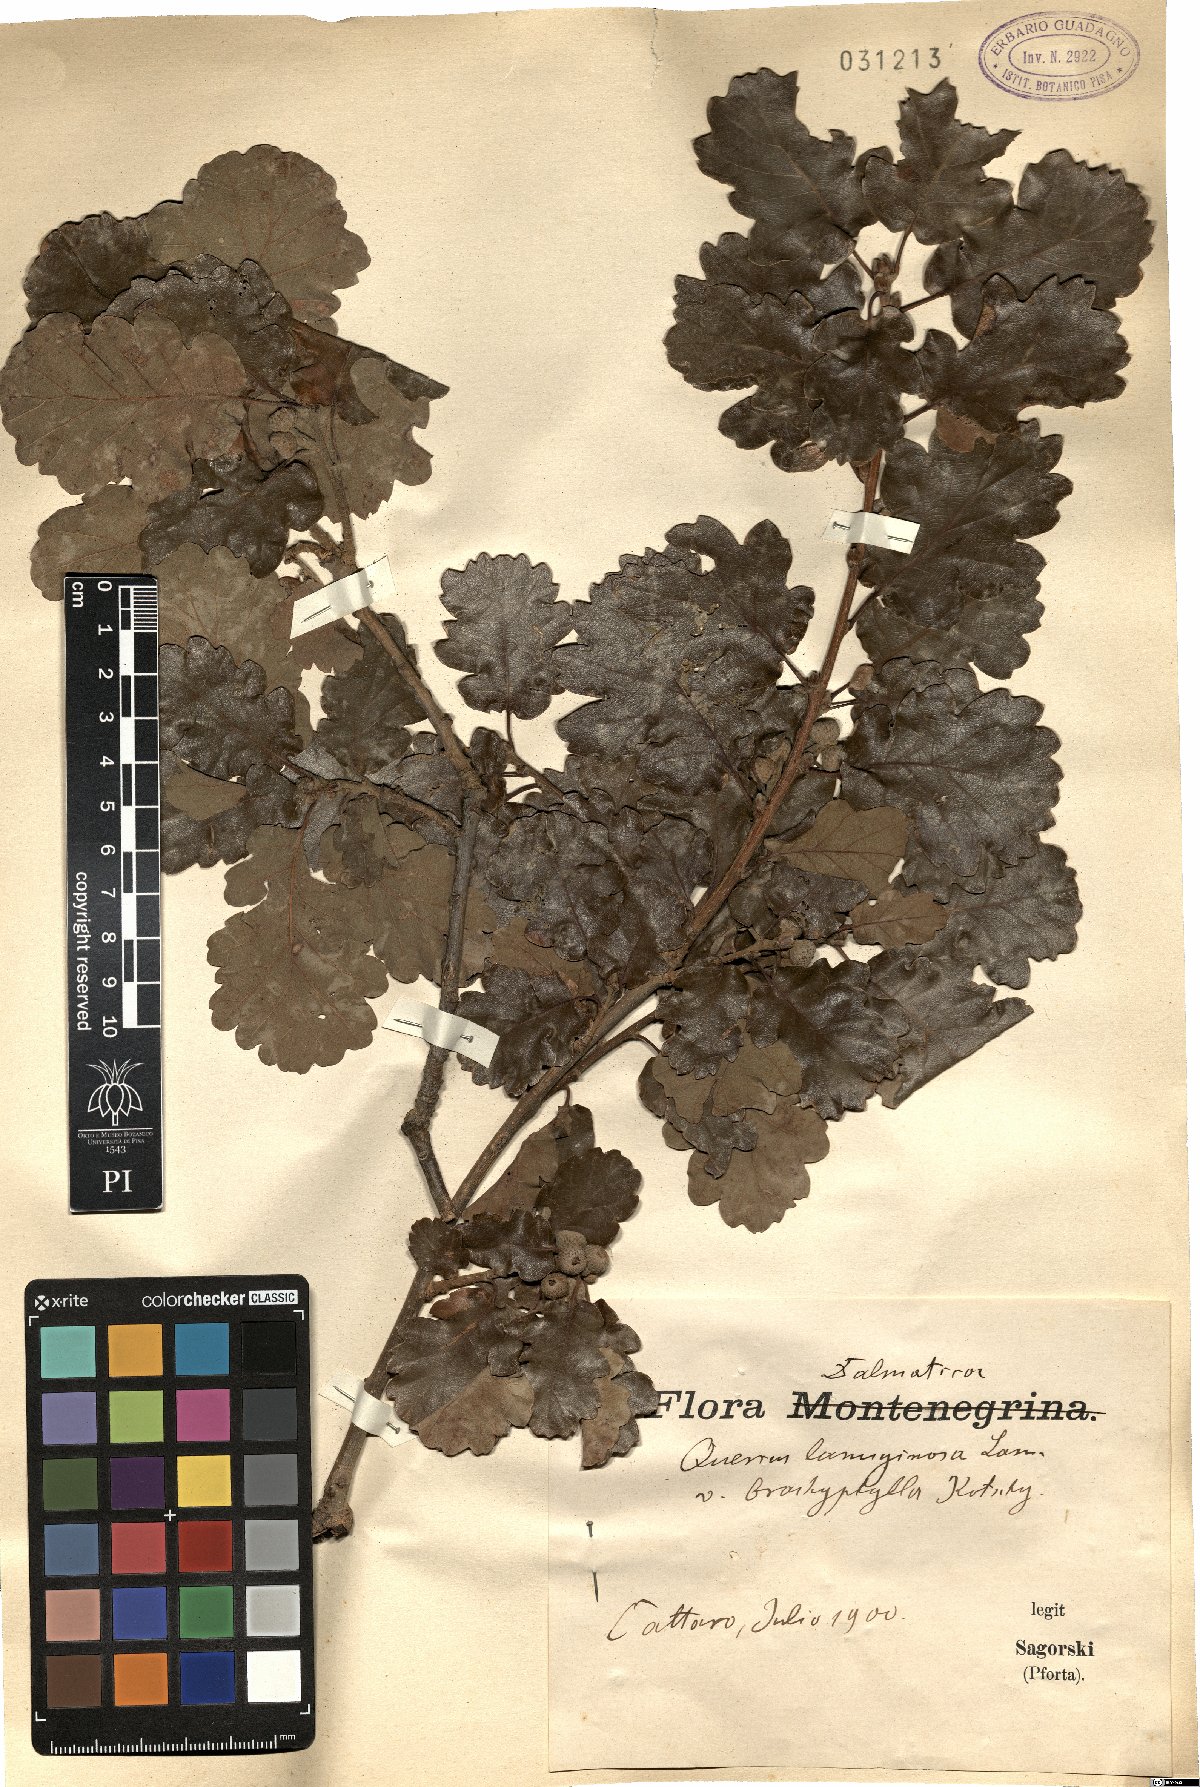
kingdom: Plantae
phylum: Tracheophyta
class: Magnoliopsida
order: Fagales
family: Fagaceae
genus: Quercus
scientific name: Quercus pubescens
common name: Downy oak
